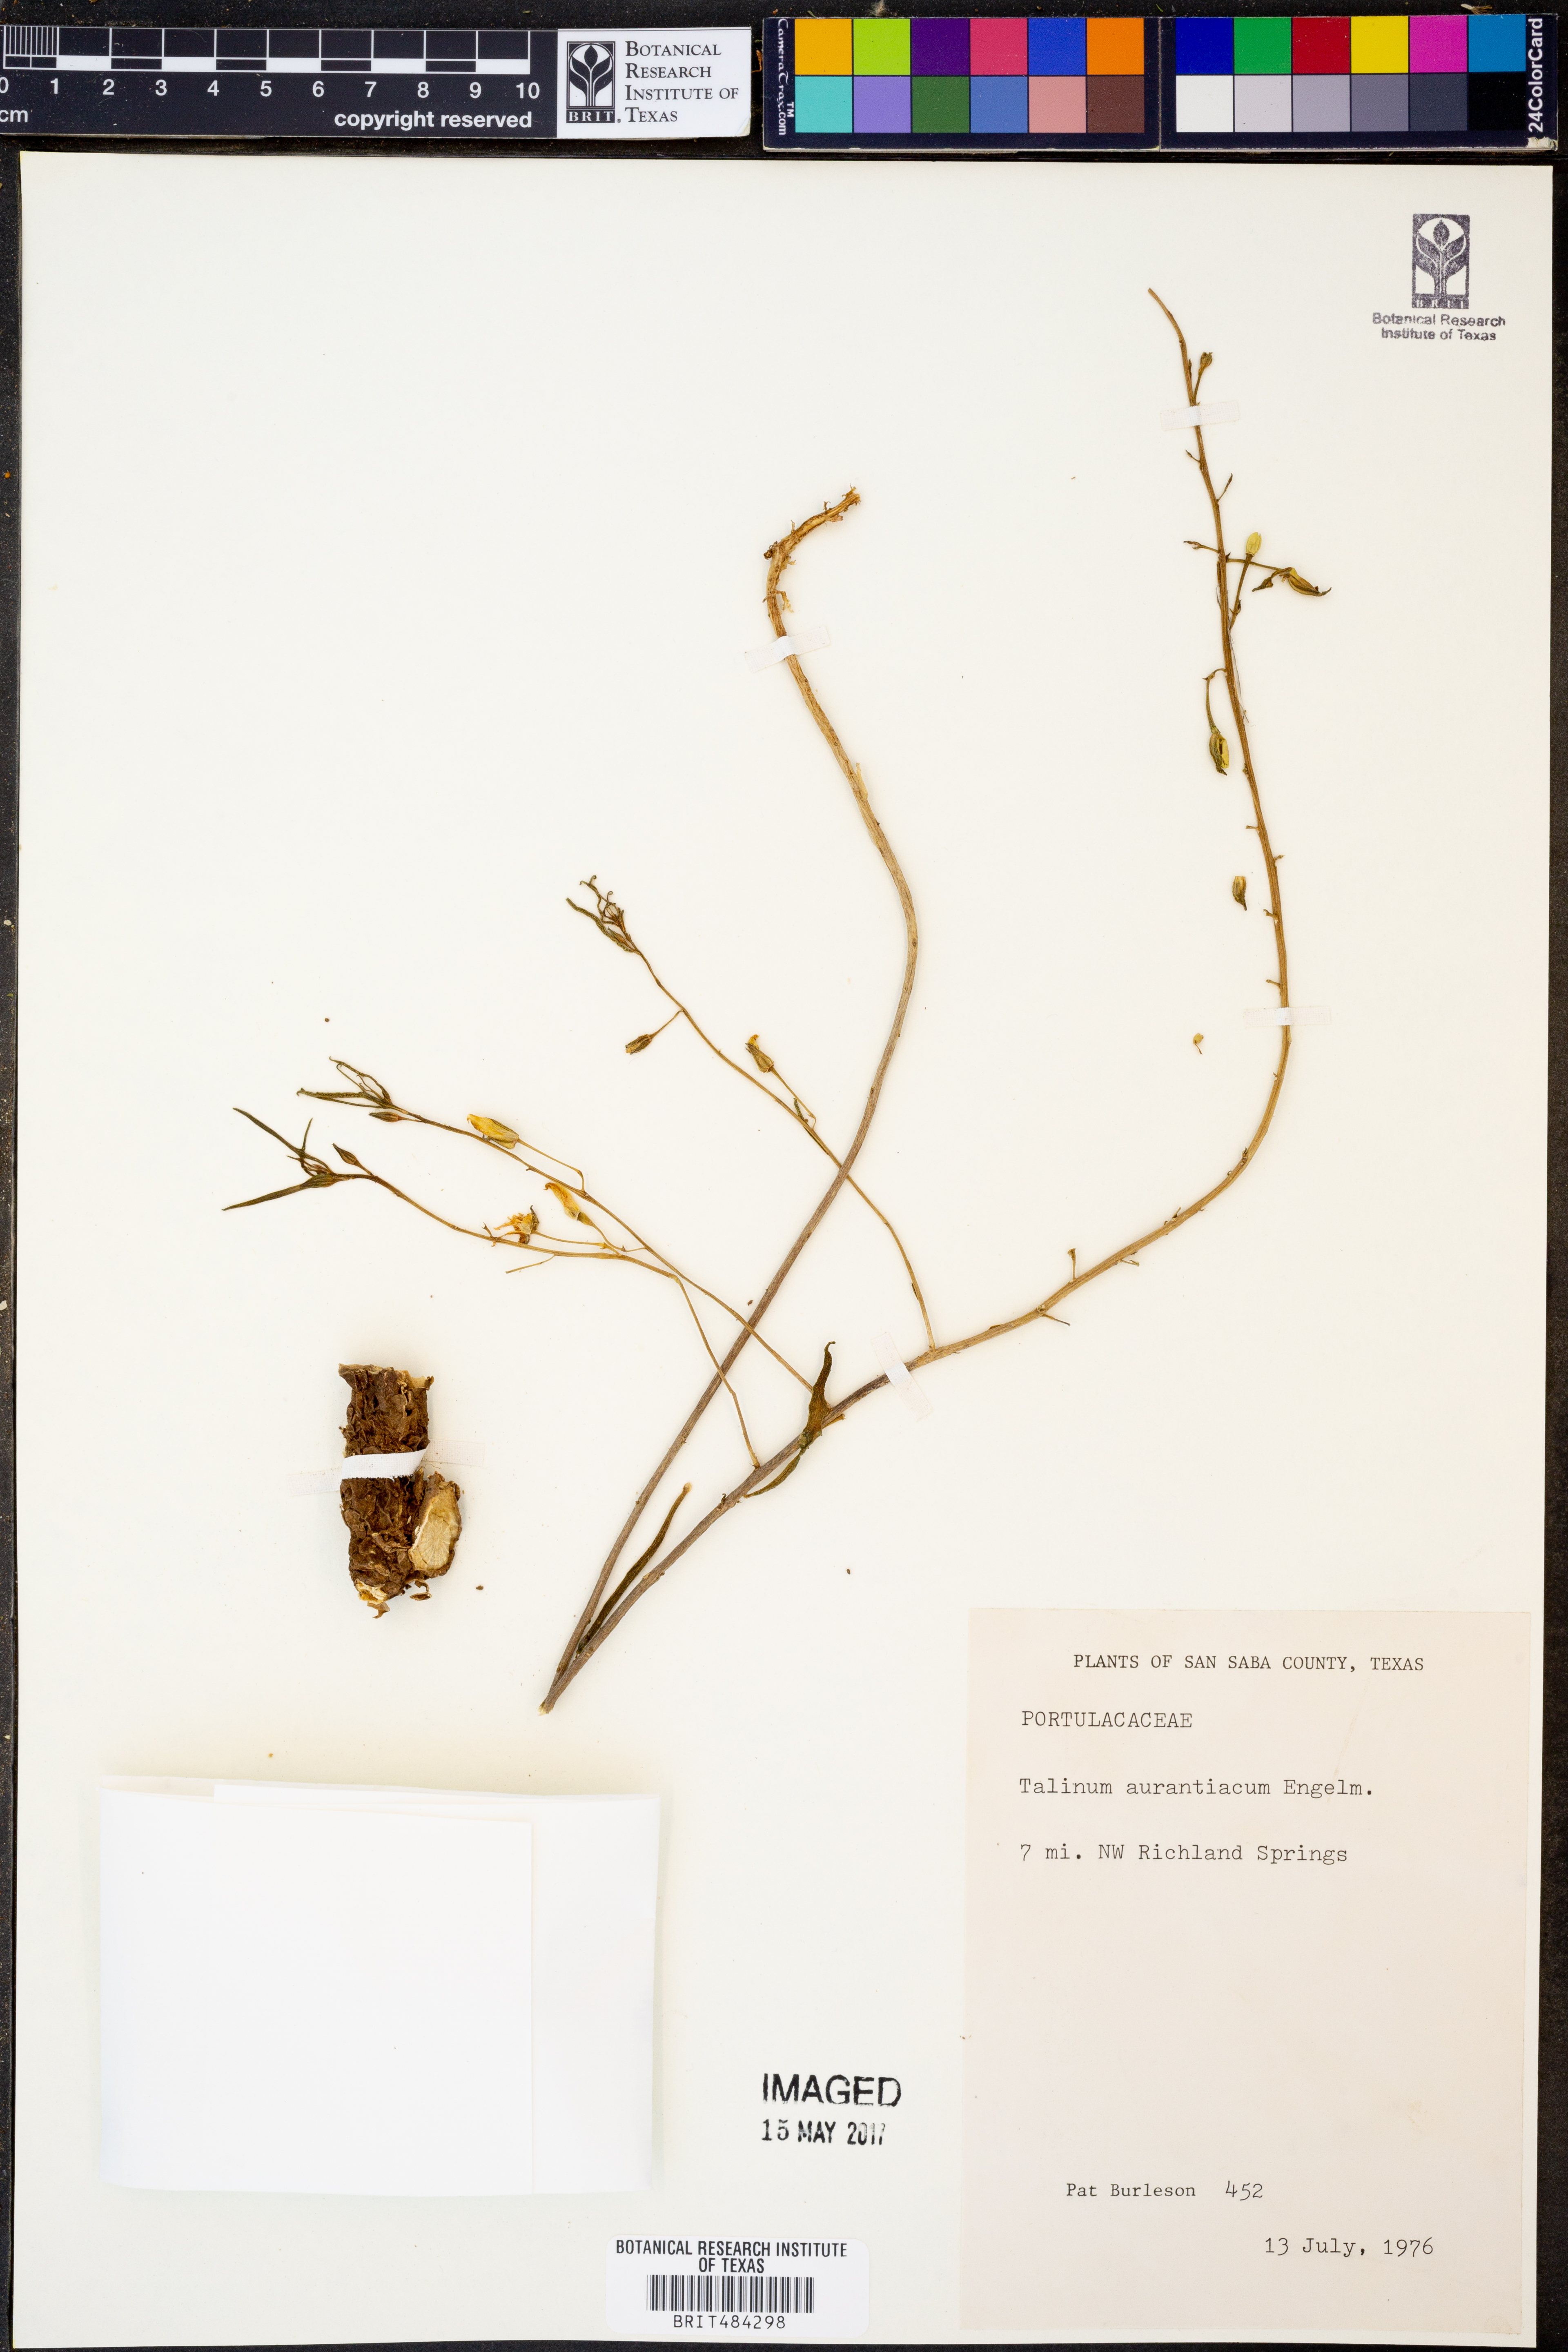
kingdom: Plantae
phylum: Tracheophyta
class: Magnoliopsida
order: Caryophyllales
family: Montiaceae
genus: Phemeranthus
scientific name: Phemeranthus aurantiacus
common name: Orange fameflower
